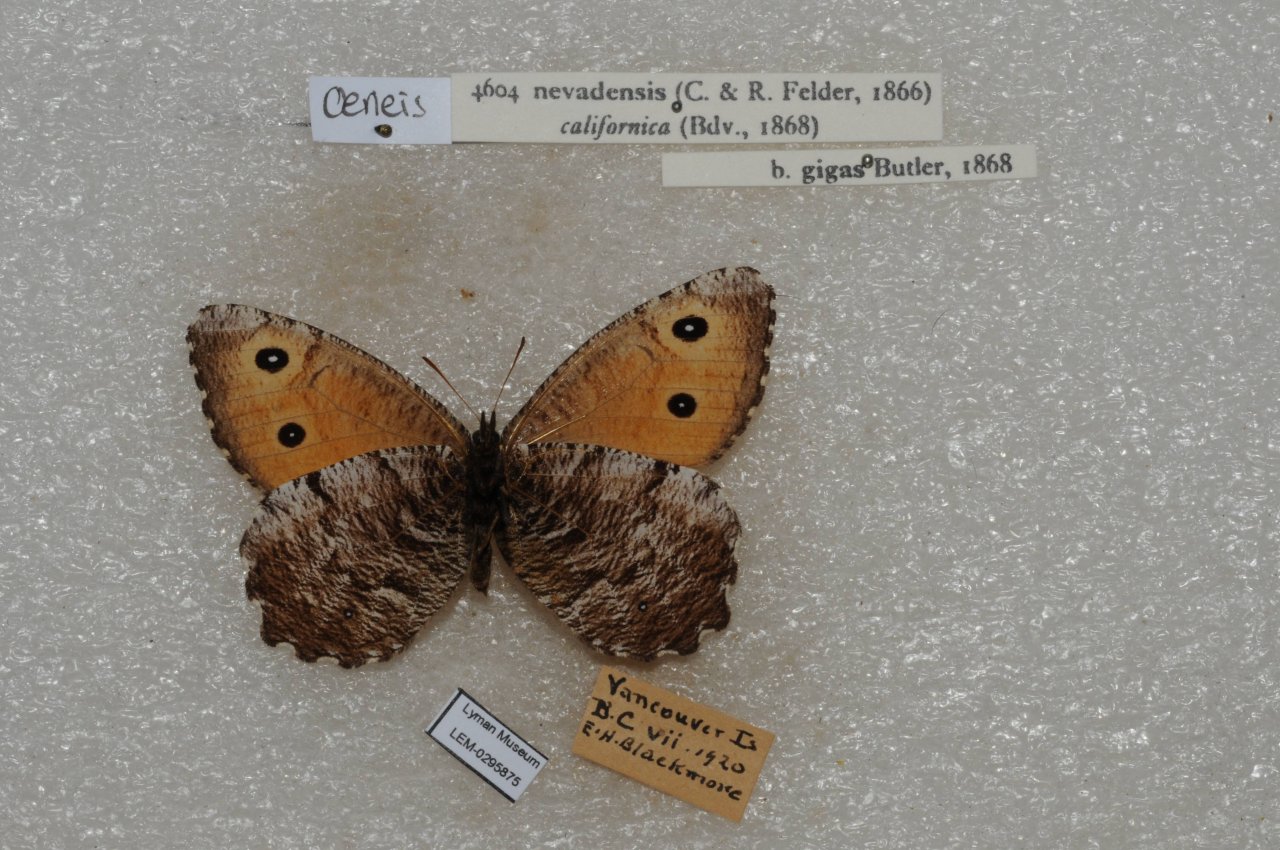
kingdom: Animalia
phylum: Arthropoda
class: Insecta
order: Lepidoptera
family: Nymphalidae
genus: Oeneis
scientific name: Oeneis nevadensis
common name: Great Arctic
